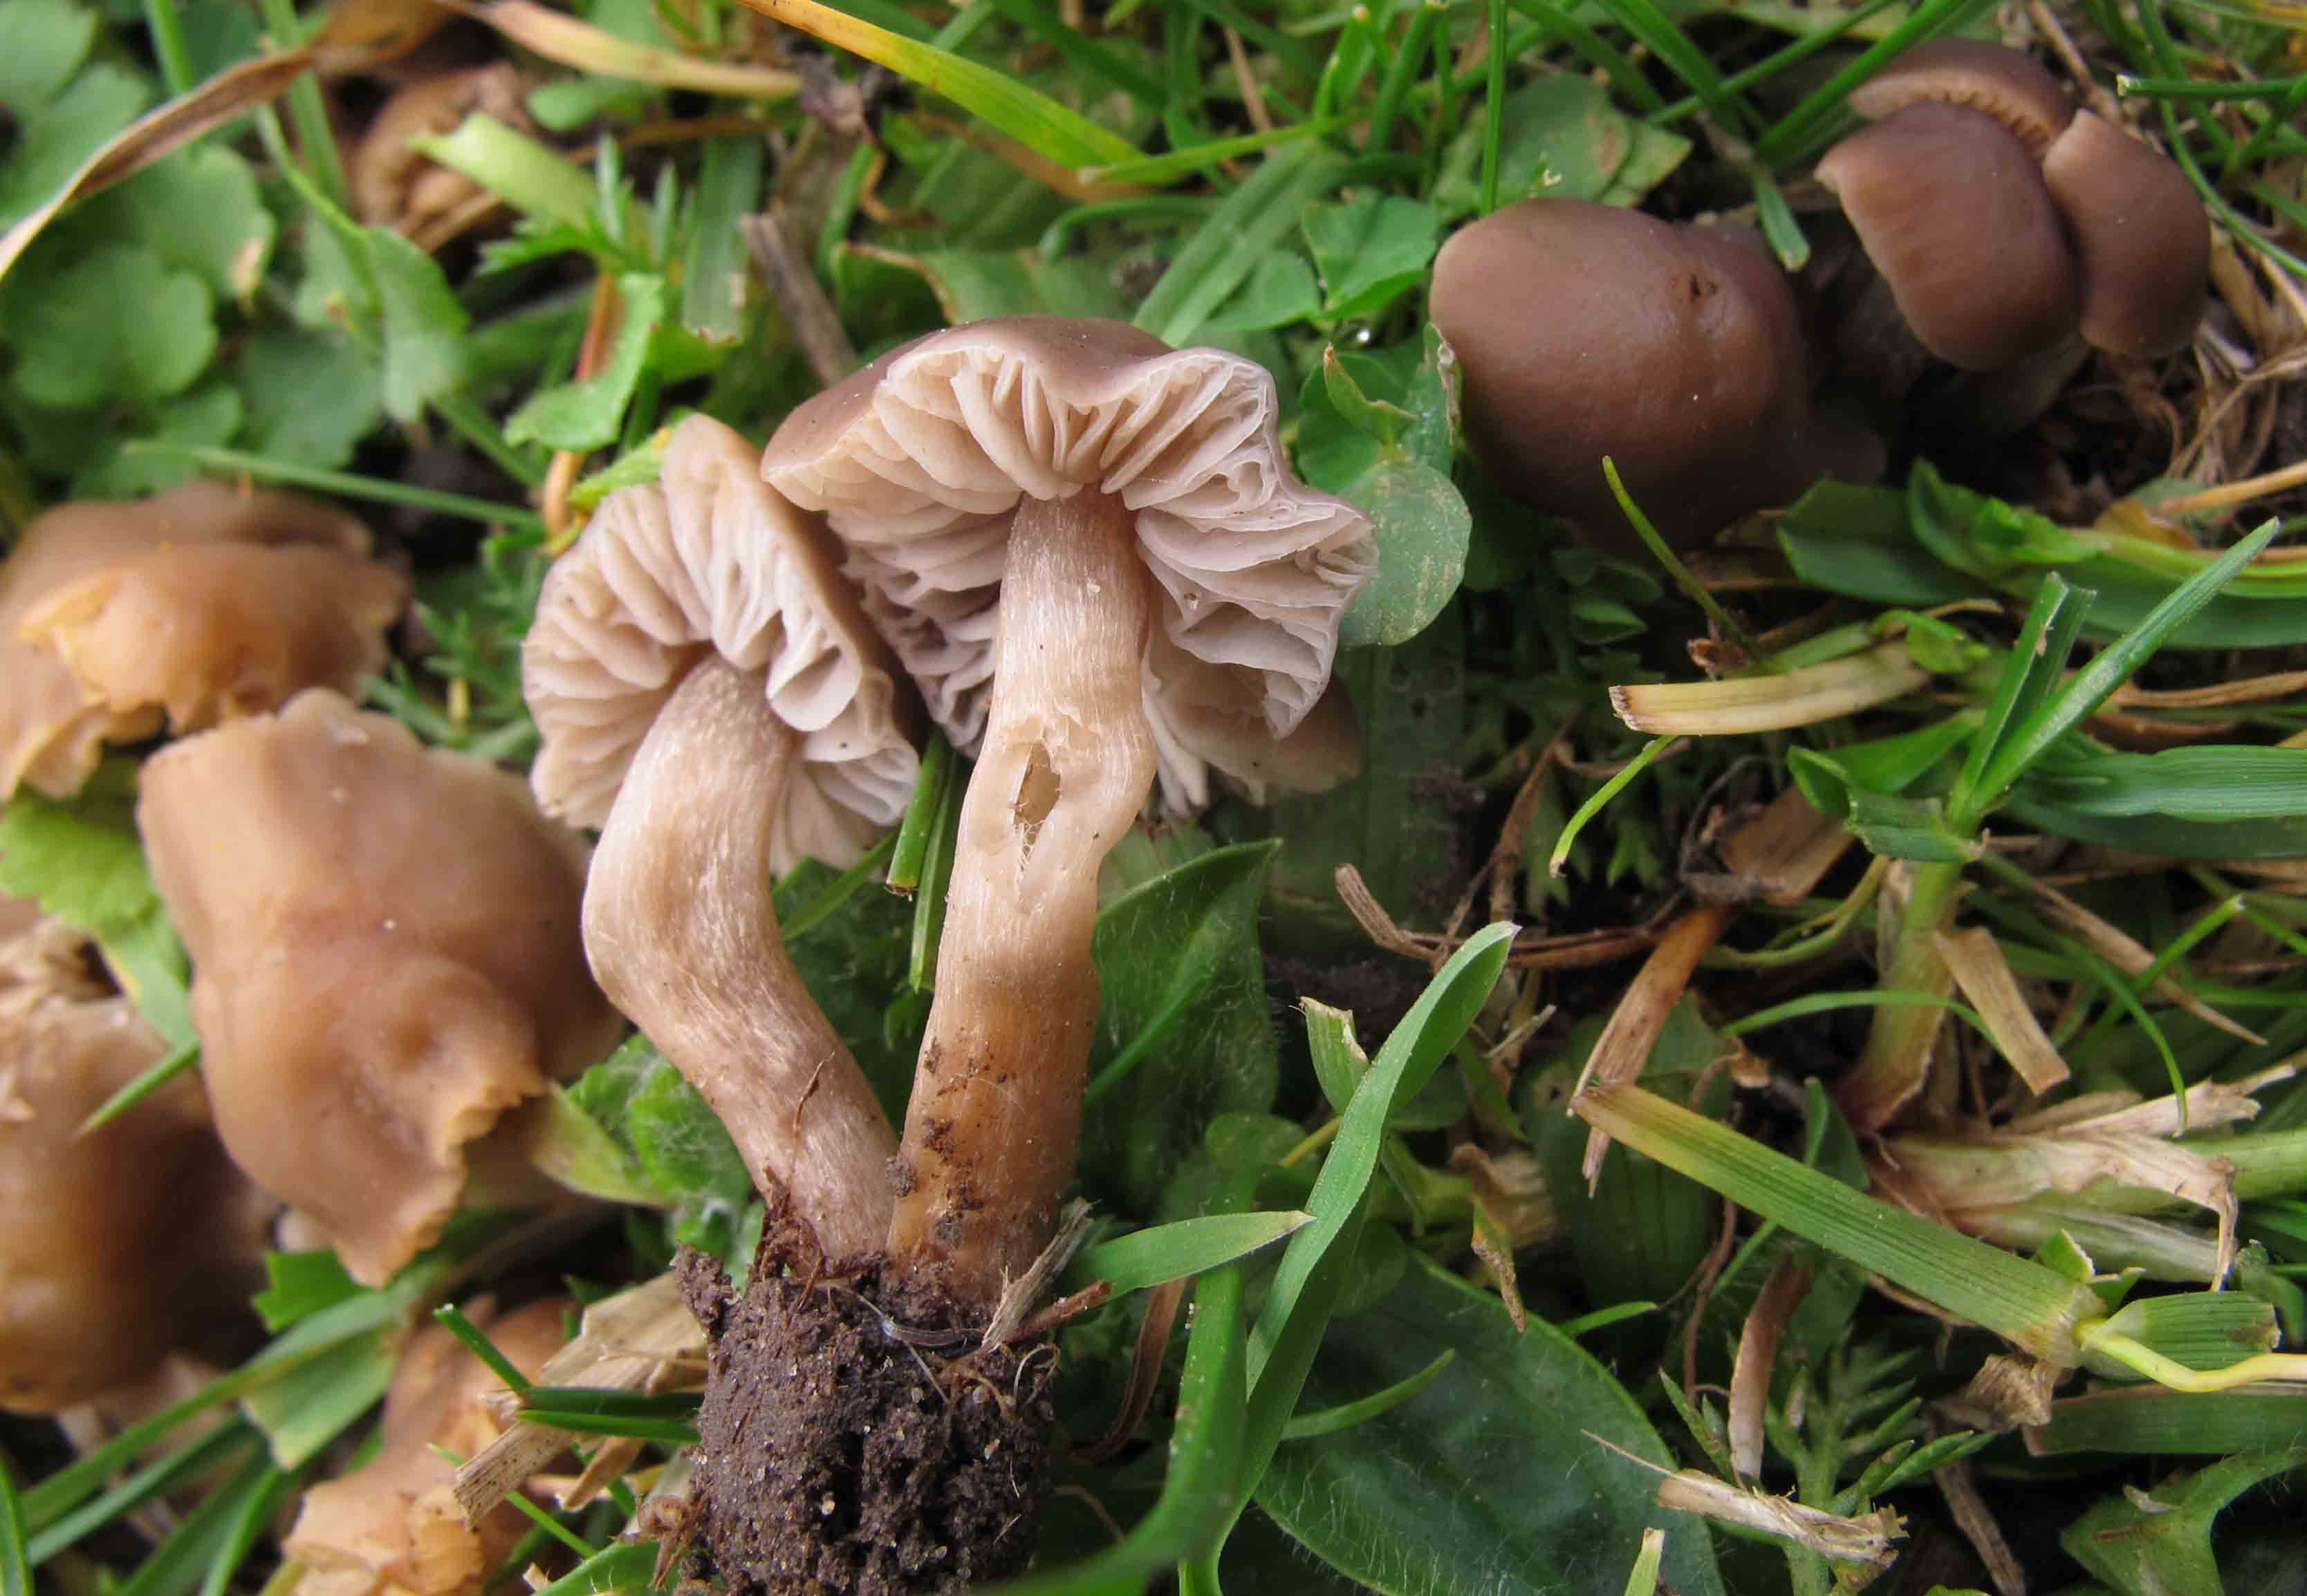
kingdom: Fungi
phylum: Basidiomycota
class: Agaricomycetes
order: Agaricales
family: Tricholomataceae
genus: Dermoloma
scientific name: Dermoloma pseudocuneifolium
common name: mark-nonnehat
